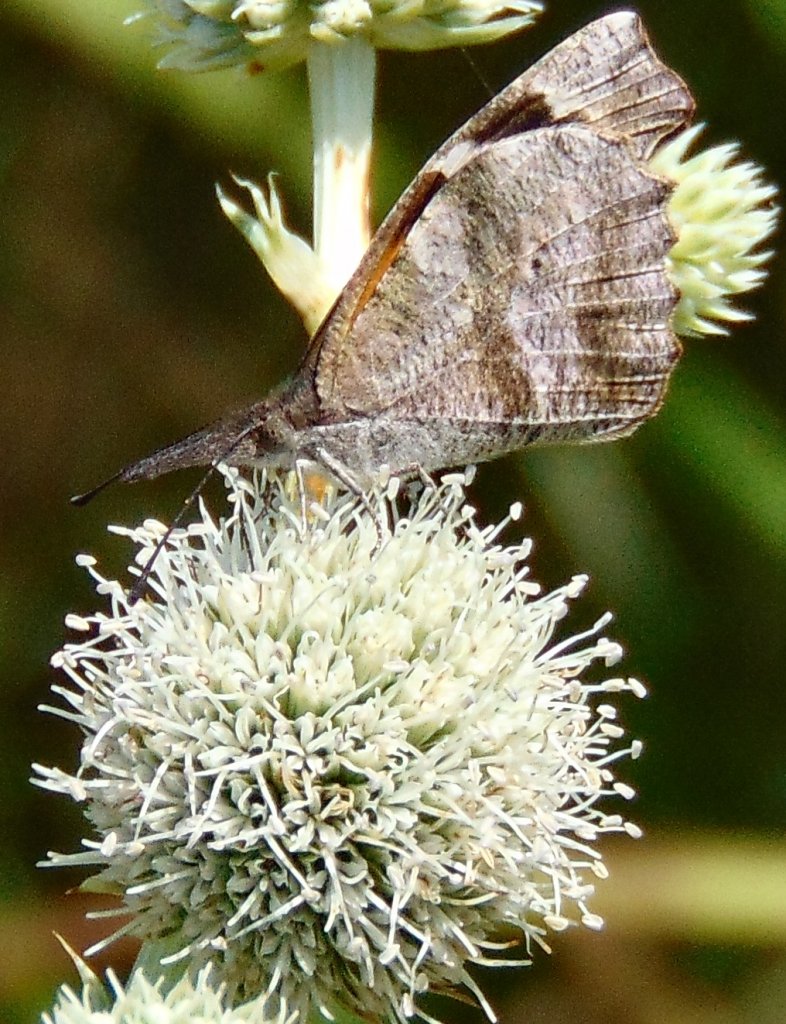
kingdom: Animalia
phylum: Arthropoda
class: Insecta
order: Lepidoptera
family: Nymphalidae
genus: Libytheana
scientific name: Libytheana carinenta
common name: American Snout
